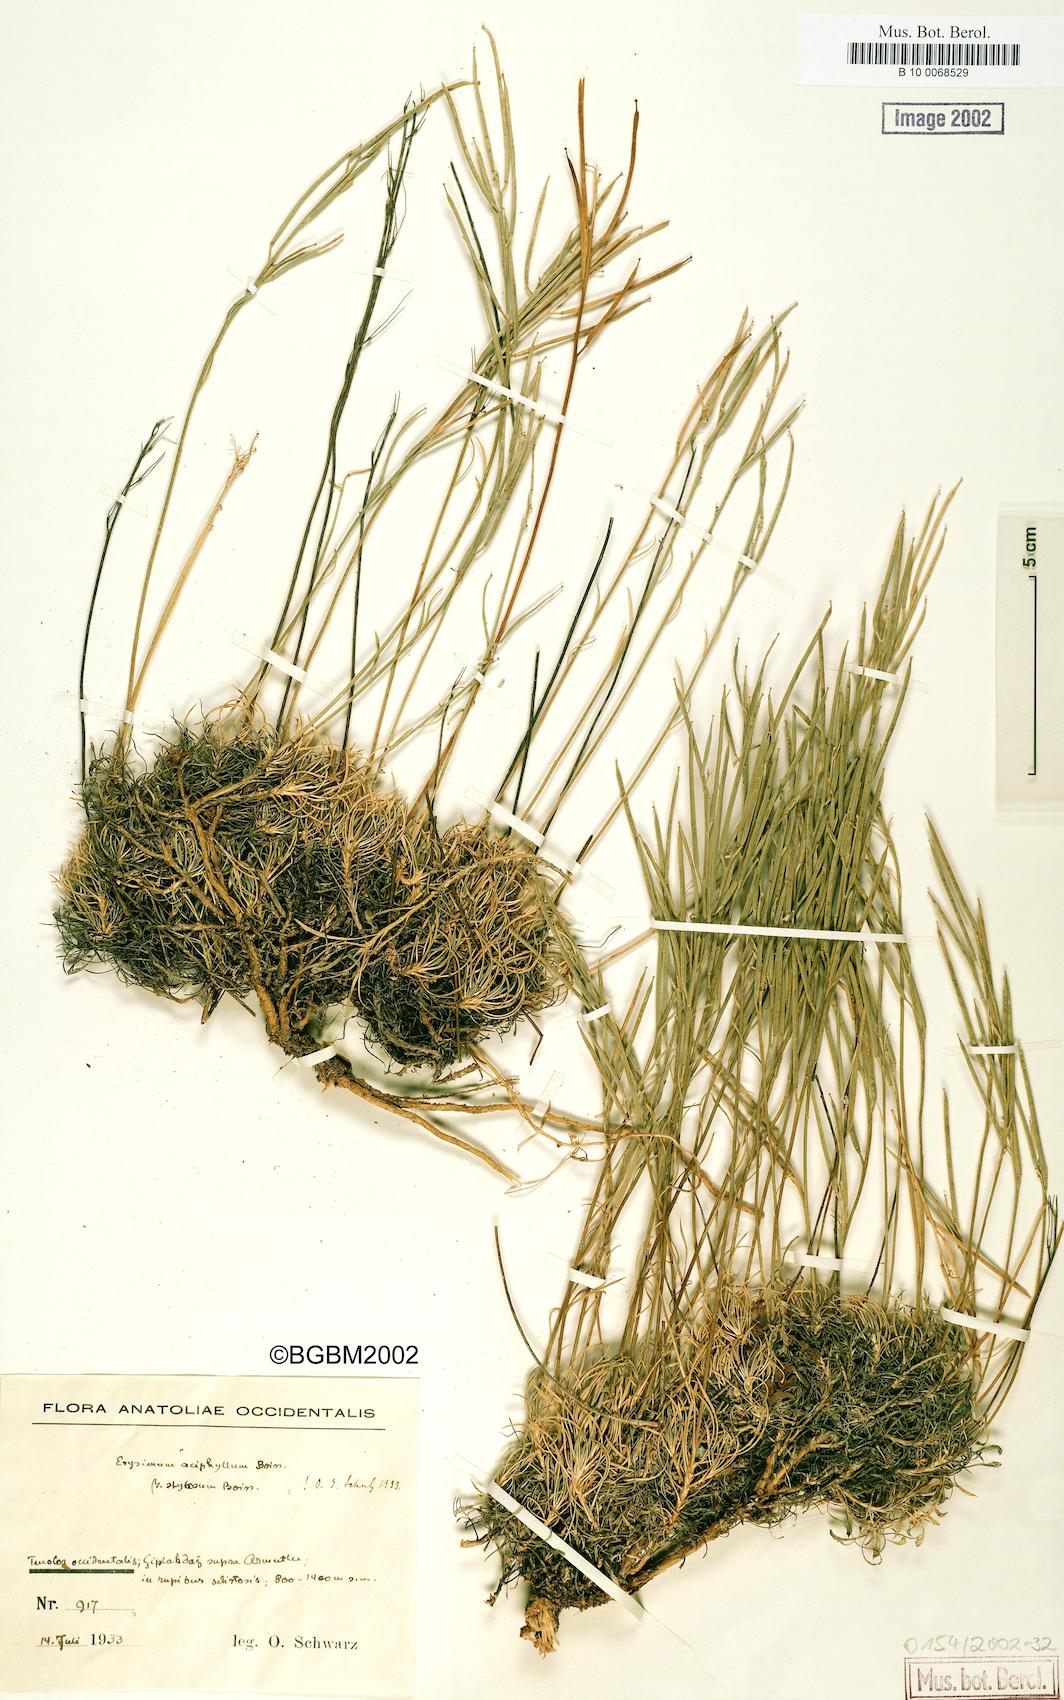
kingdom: Plantae
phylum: Tracheophyta
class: Magnoliopsida
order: Brassicales
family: Brassicaceae
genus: Erysimum
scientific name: Erysimum leptocarpum
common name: Thin-fruited tracle mustard
